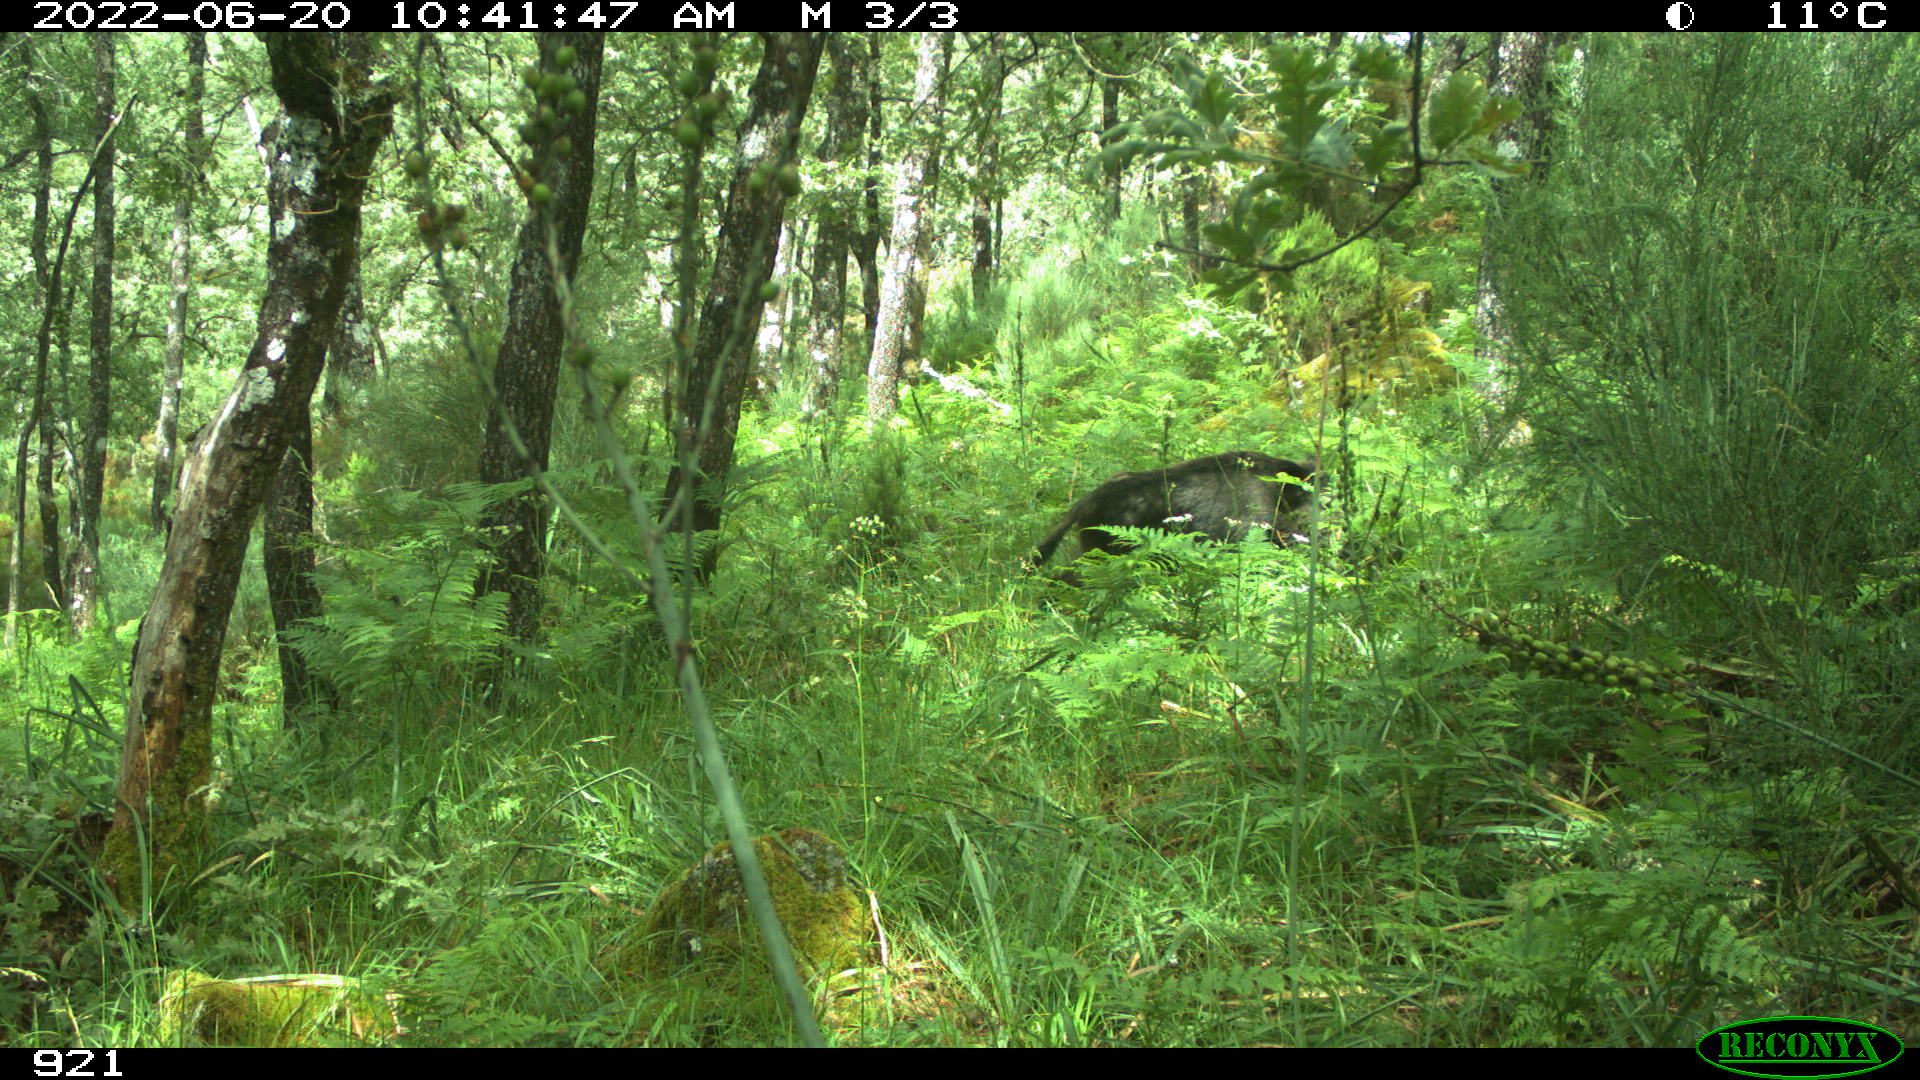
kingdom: Animalia
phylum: Chordata
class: Mammalia
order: Artiodactyla
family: Suidae
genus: Sus
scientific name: Sus scrofa
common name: Wild boar
